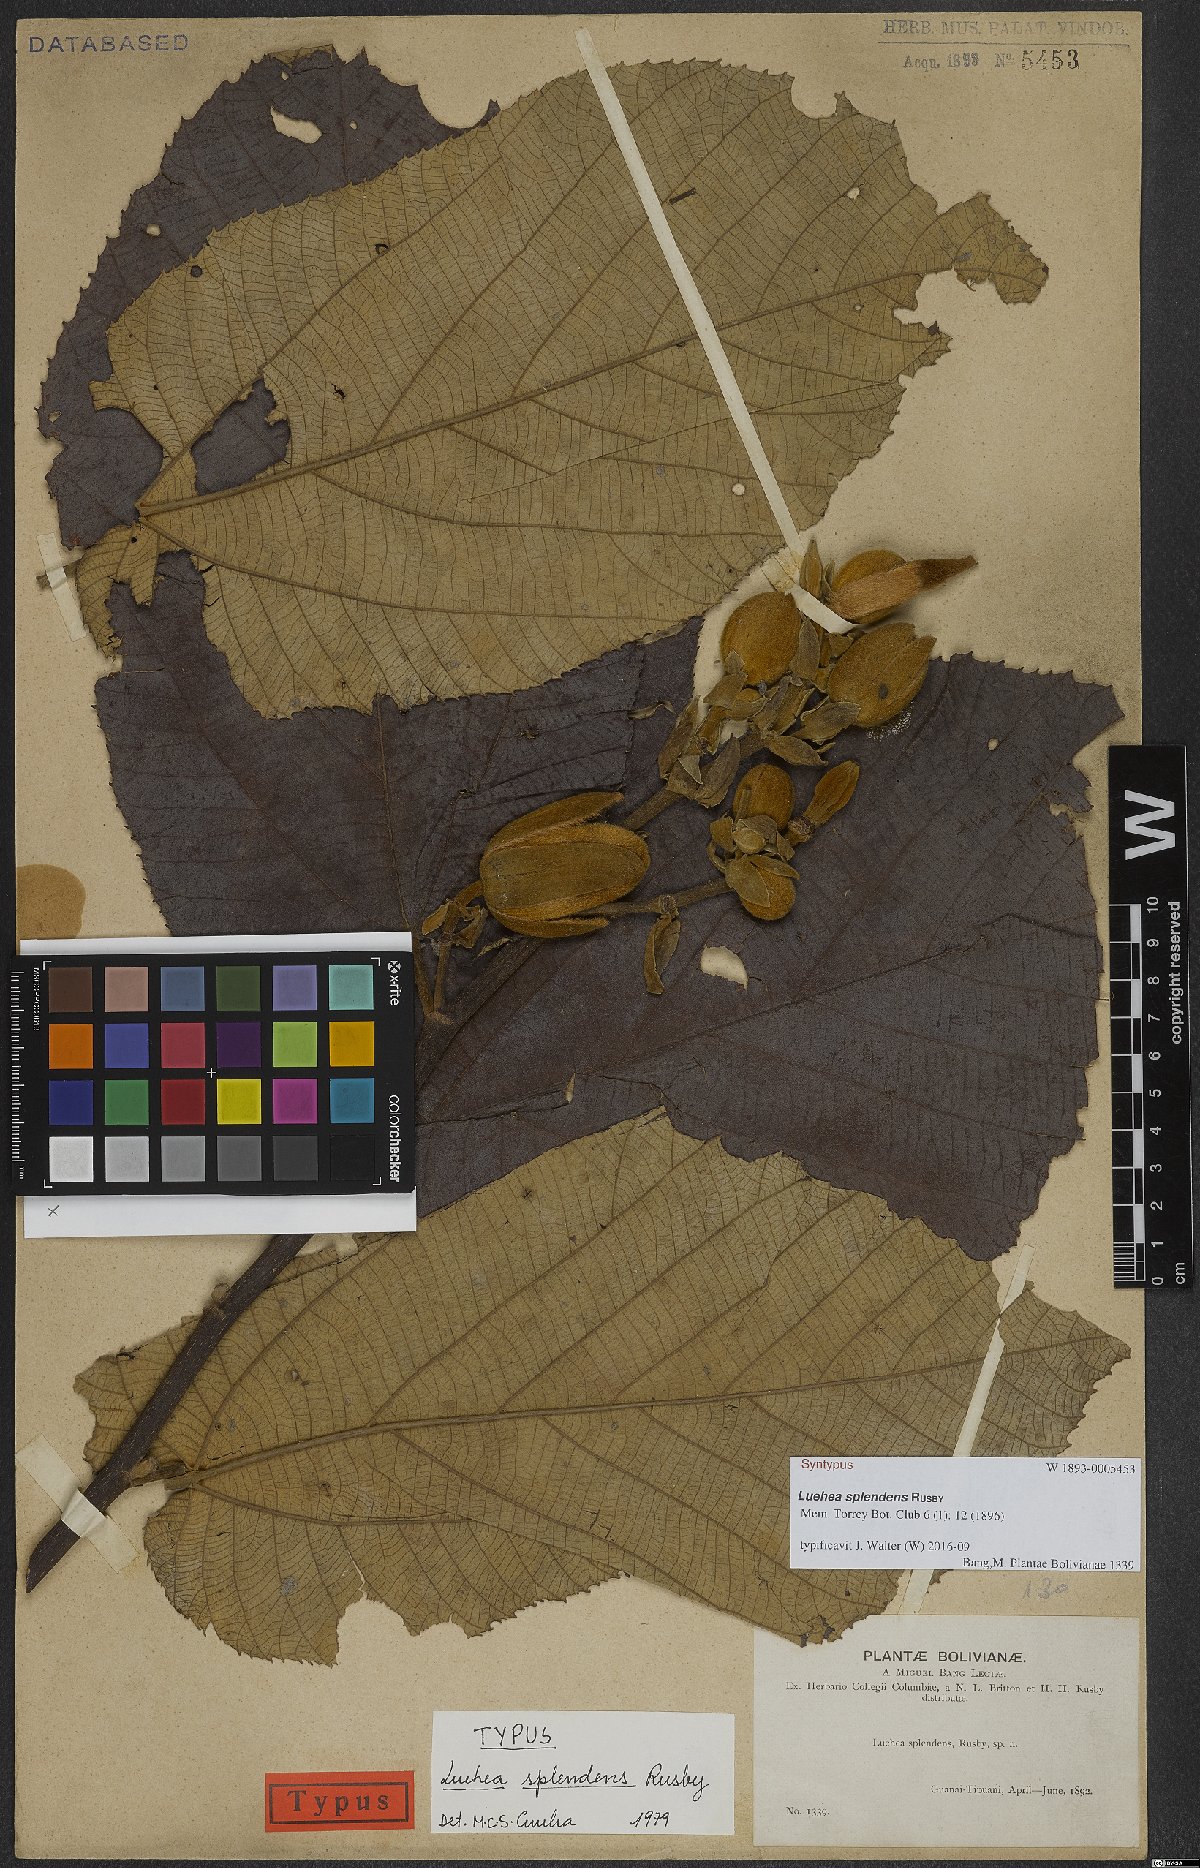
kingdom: Plantae
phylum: Tracheophyta
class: Magnoliopsida
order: Malvales
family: Malvaceae
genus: Luehea
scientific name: Luehea splendens
